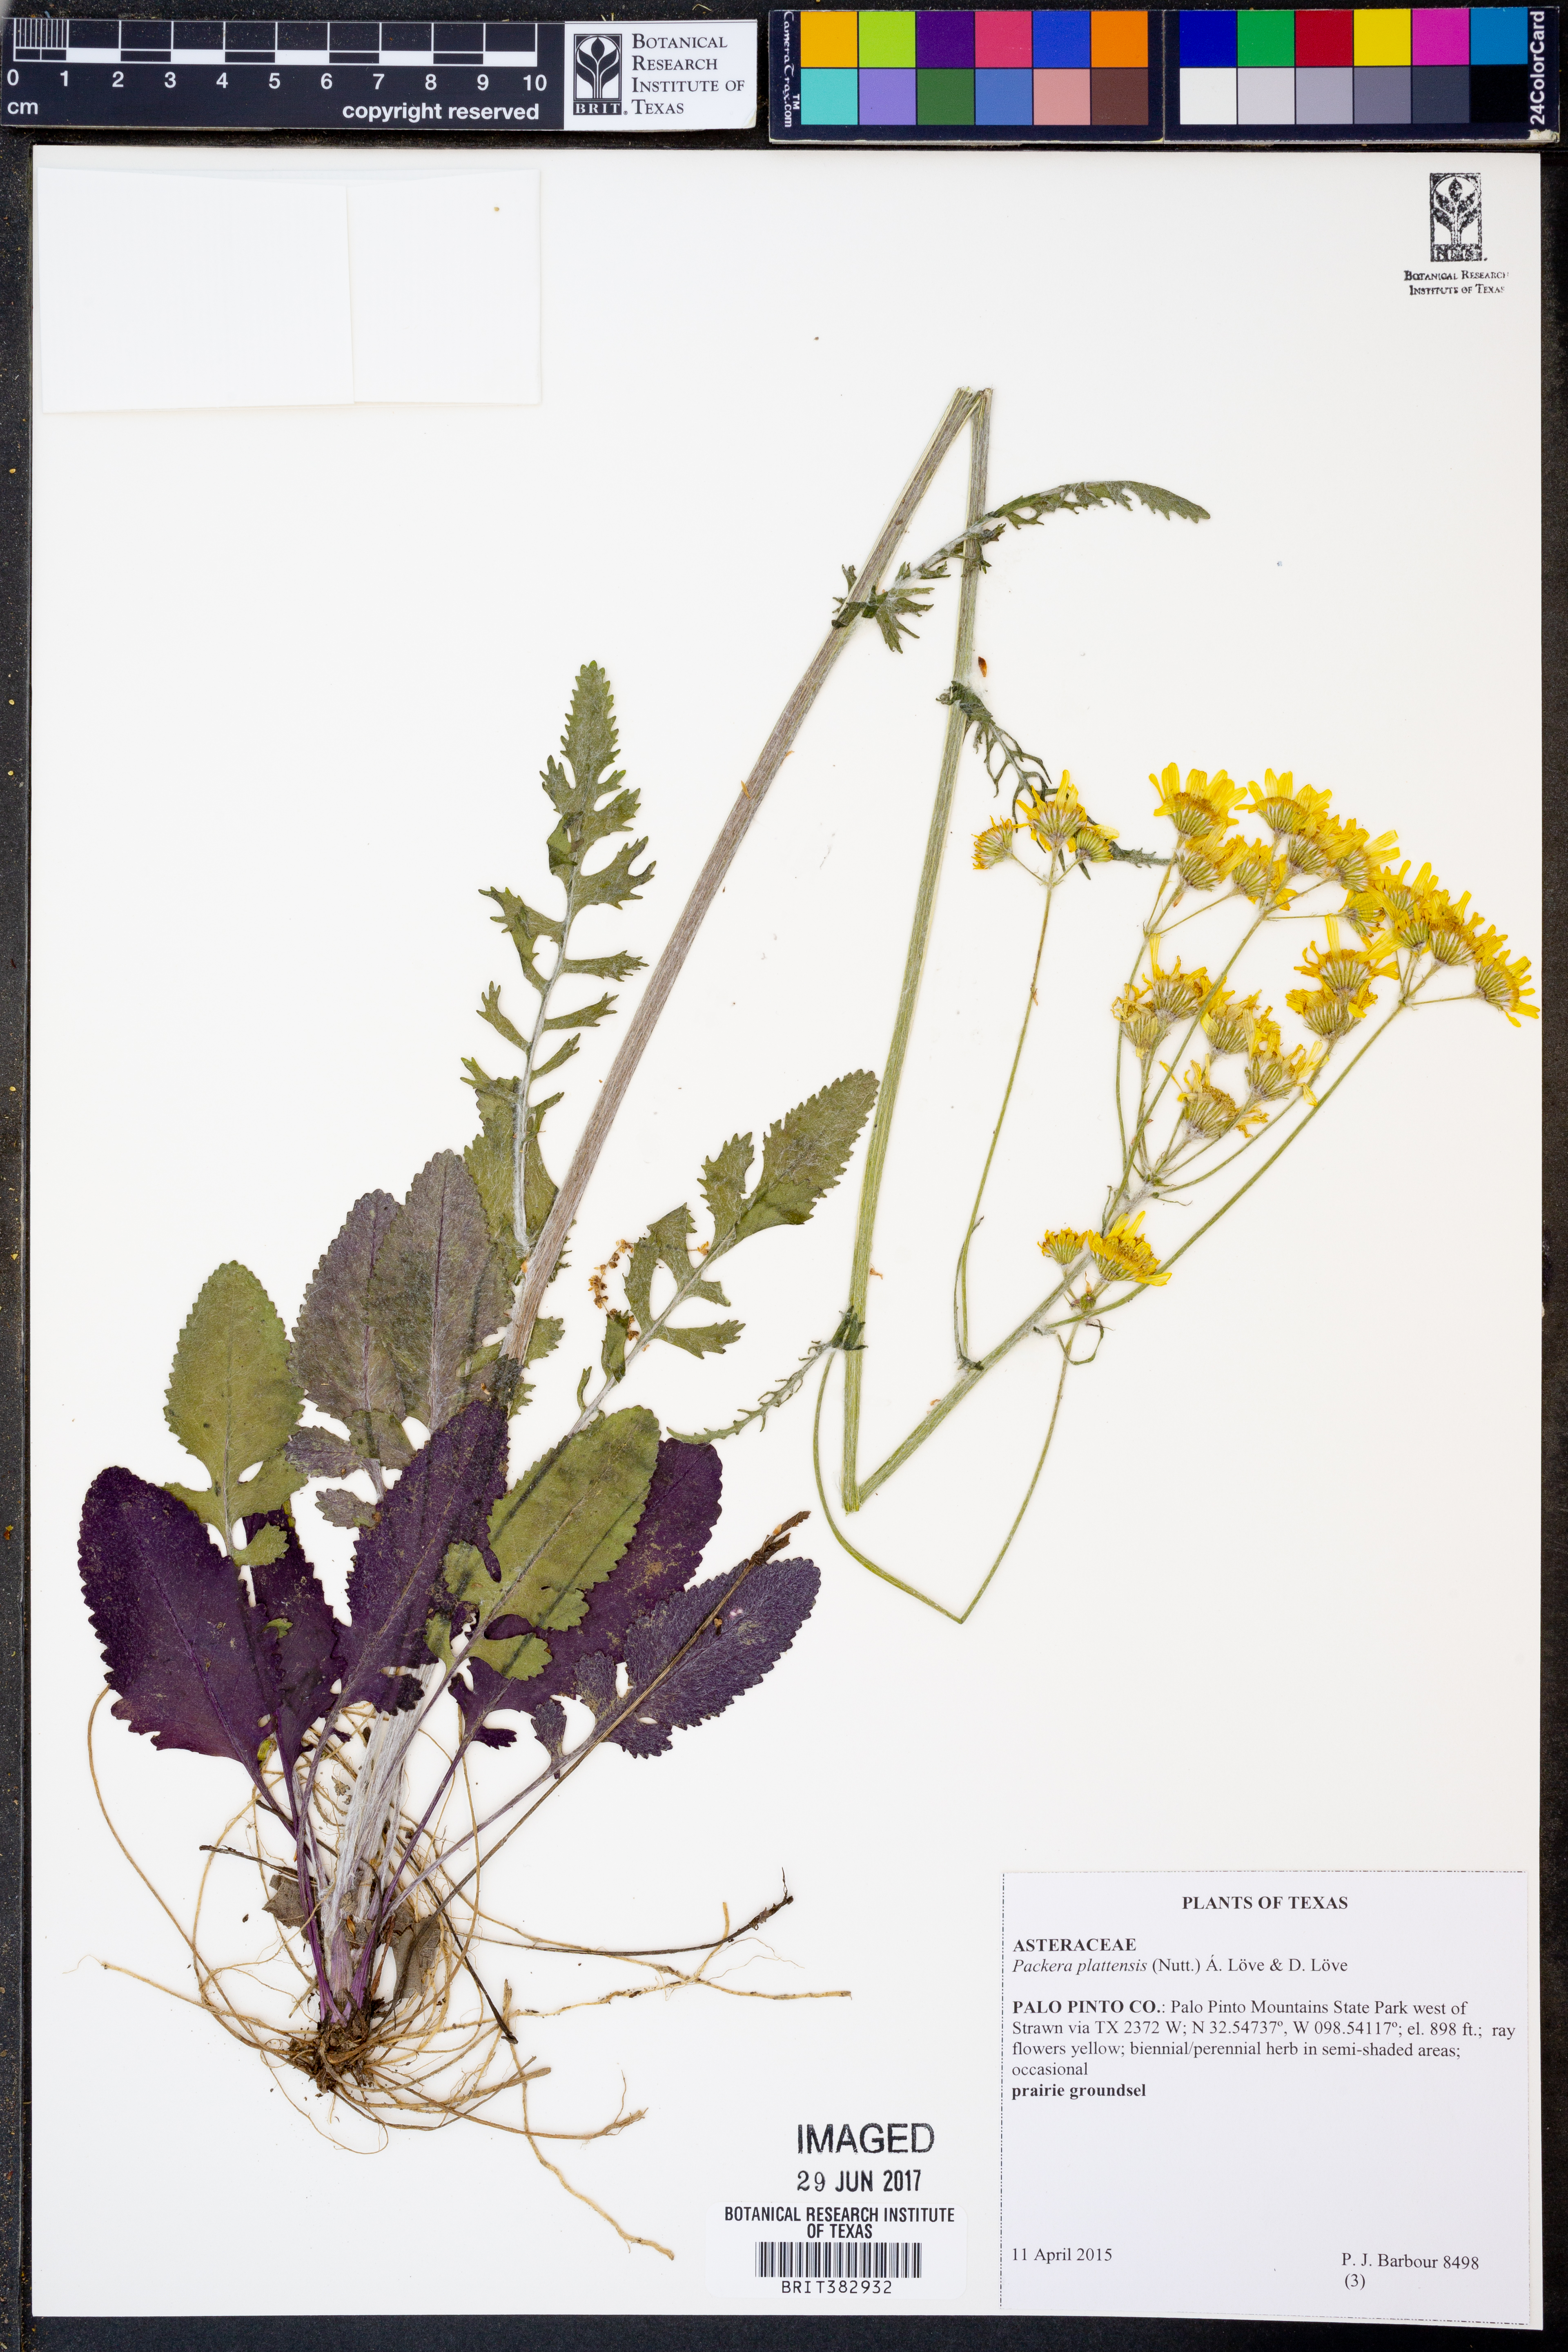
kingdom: Plantae
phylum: Tracheophyta
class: Magnoliopsida
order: Asterales
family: Asteraceae
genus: Packera
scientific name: Packera plattensis
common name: Prairie groundsel
